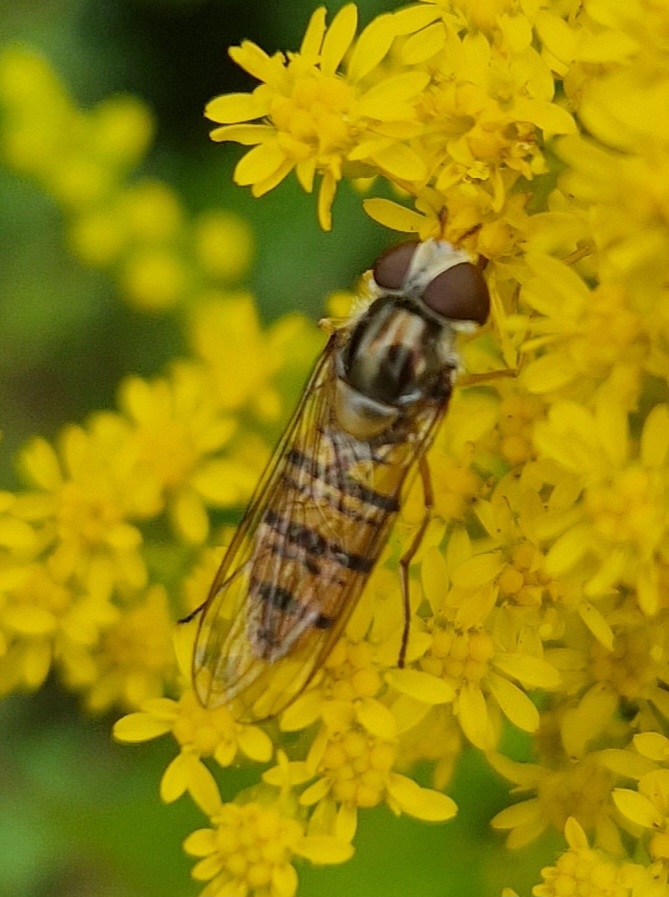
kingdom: Animalia
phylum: Arthropoda
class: Insecta
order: Diptera
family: Syrphidae
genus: Episyrphus
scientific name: Episyrphus balteatus
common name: Dobbeltbåndet svirreflue
